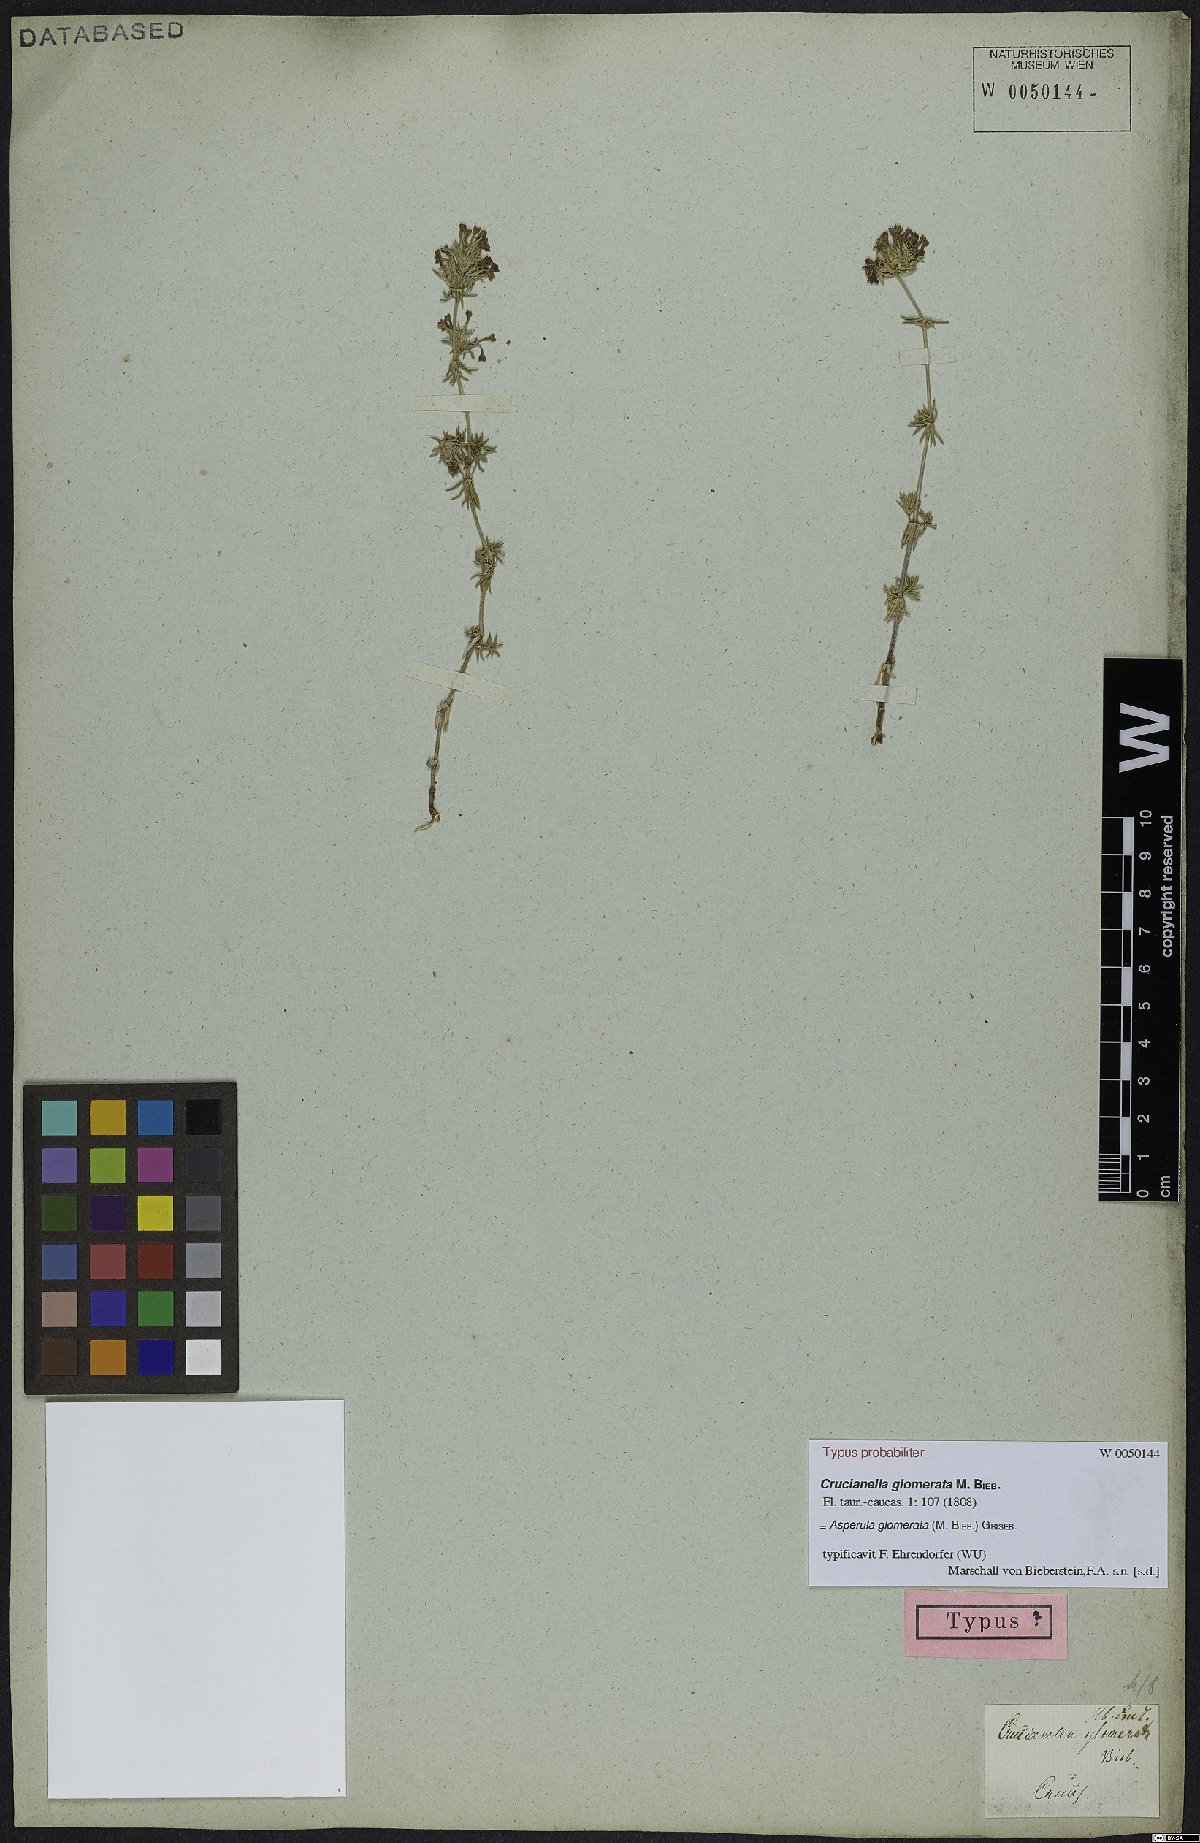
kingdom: Plantae
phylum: Tracheophyta
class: Magnoliopsida
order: Gentianales
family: Rubiaceae
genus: Asperula
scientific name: Asperula glomerata
